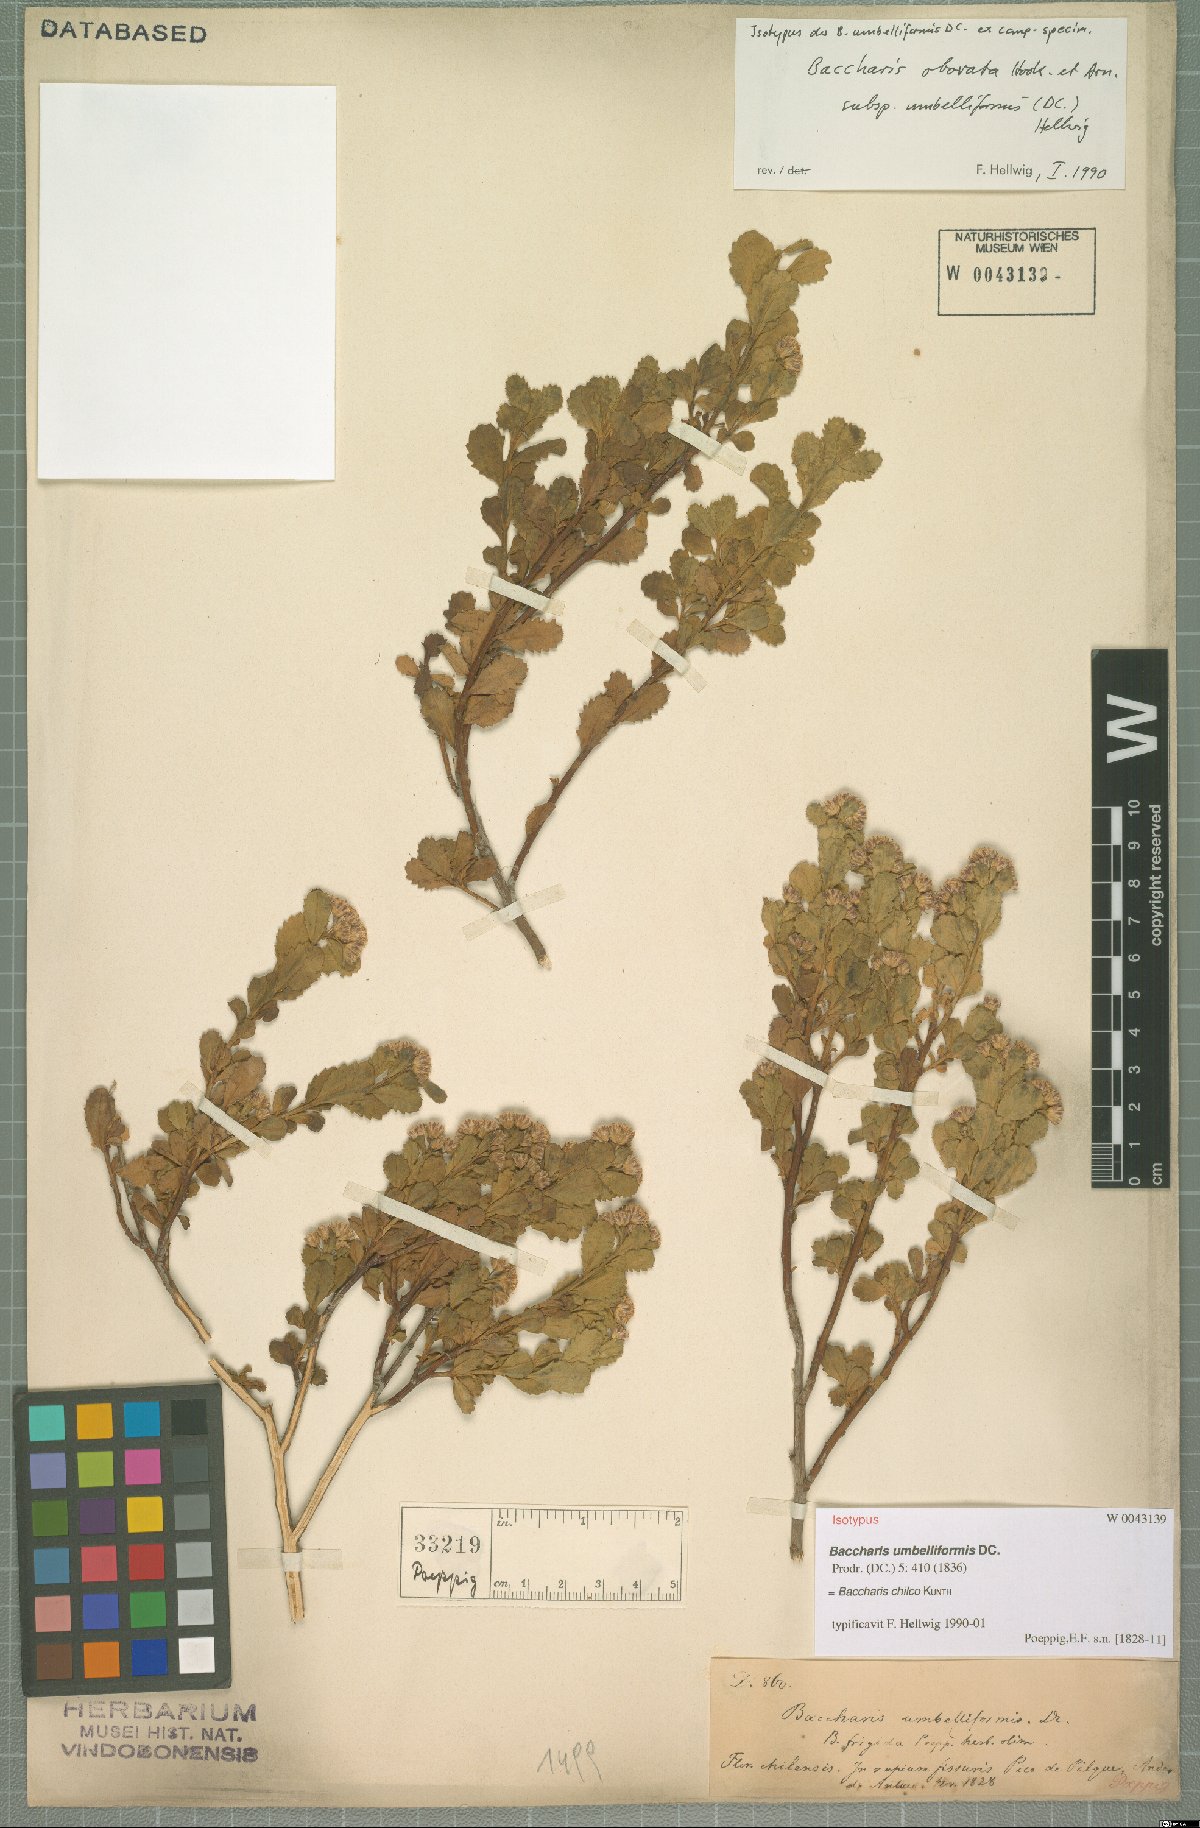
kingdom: Plantae
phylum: Tracheophyta
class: Magnoliopsida
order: Asterales
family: Asteraceae
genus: Baccharis
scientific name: Baccharis linearifolia
